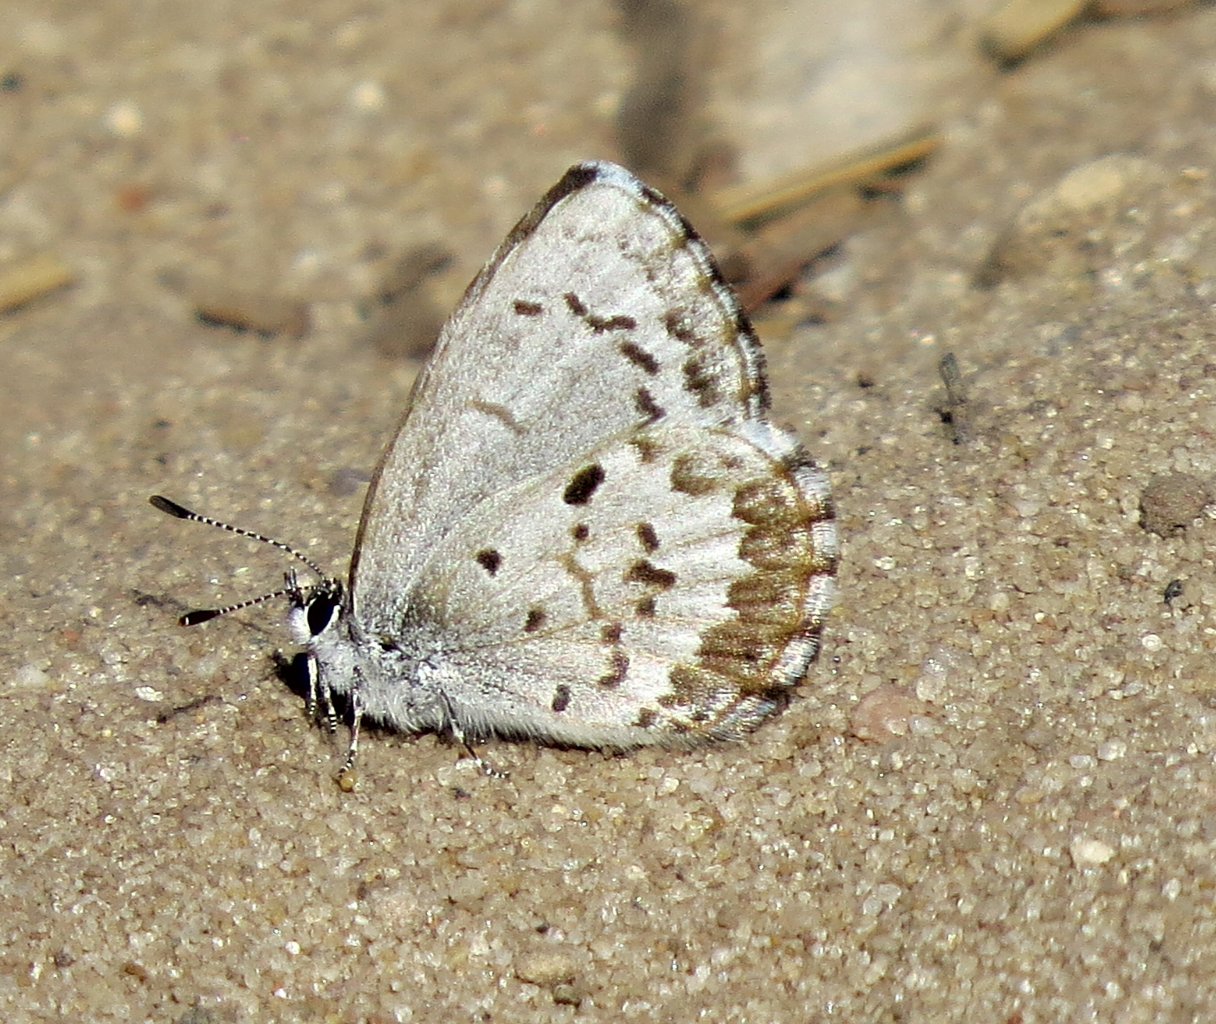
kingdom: Animalia
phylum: Arthropoda
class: Insecta
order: Lepidoptera
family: Lycaenidae
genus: Celastrina
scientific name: Celastrina lucia
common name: Northern Spring Azure
